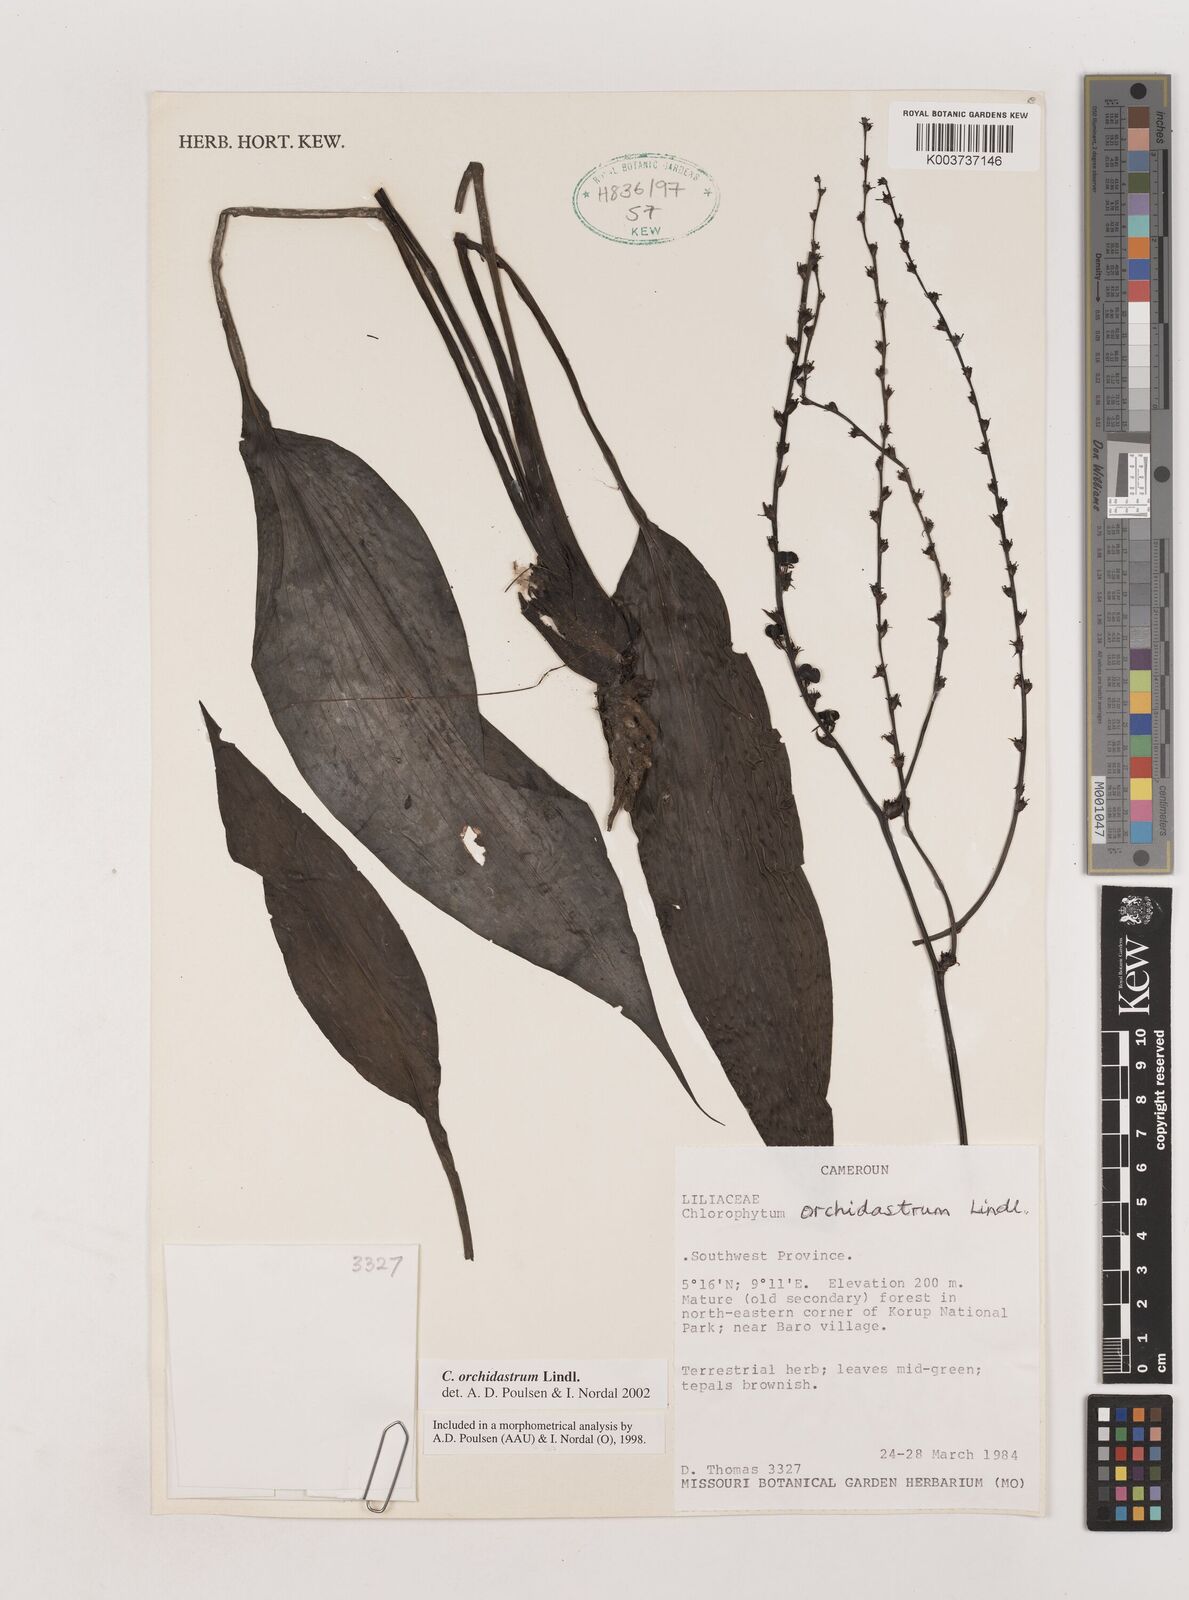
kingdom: Plantae
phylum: Tracheophyta
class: Liliopsida
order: Asparagales
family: Asparagaceae
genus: Chlorophytum
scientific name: Chlorophytum orchidastrum
